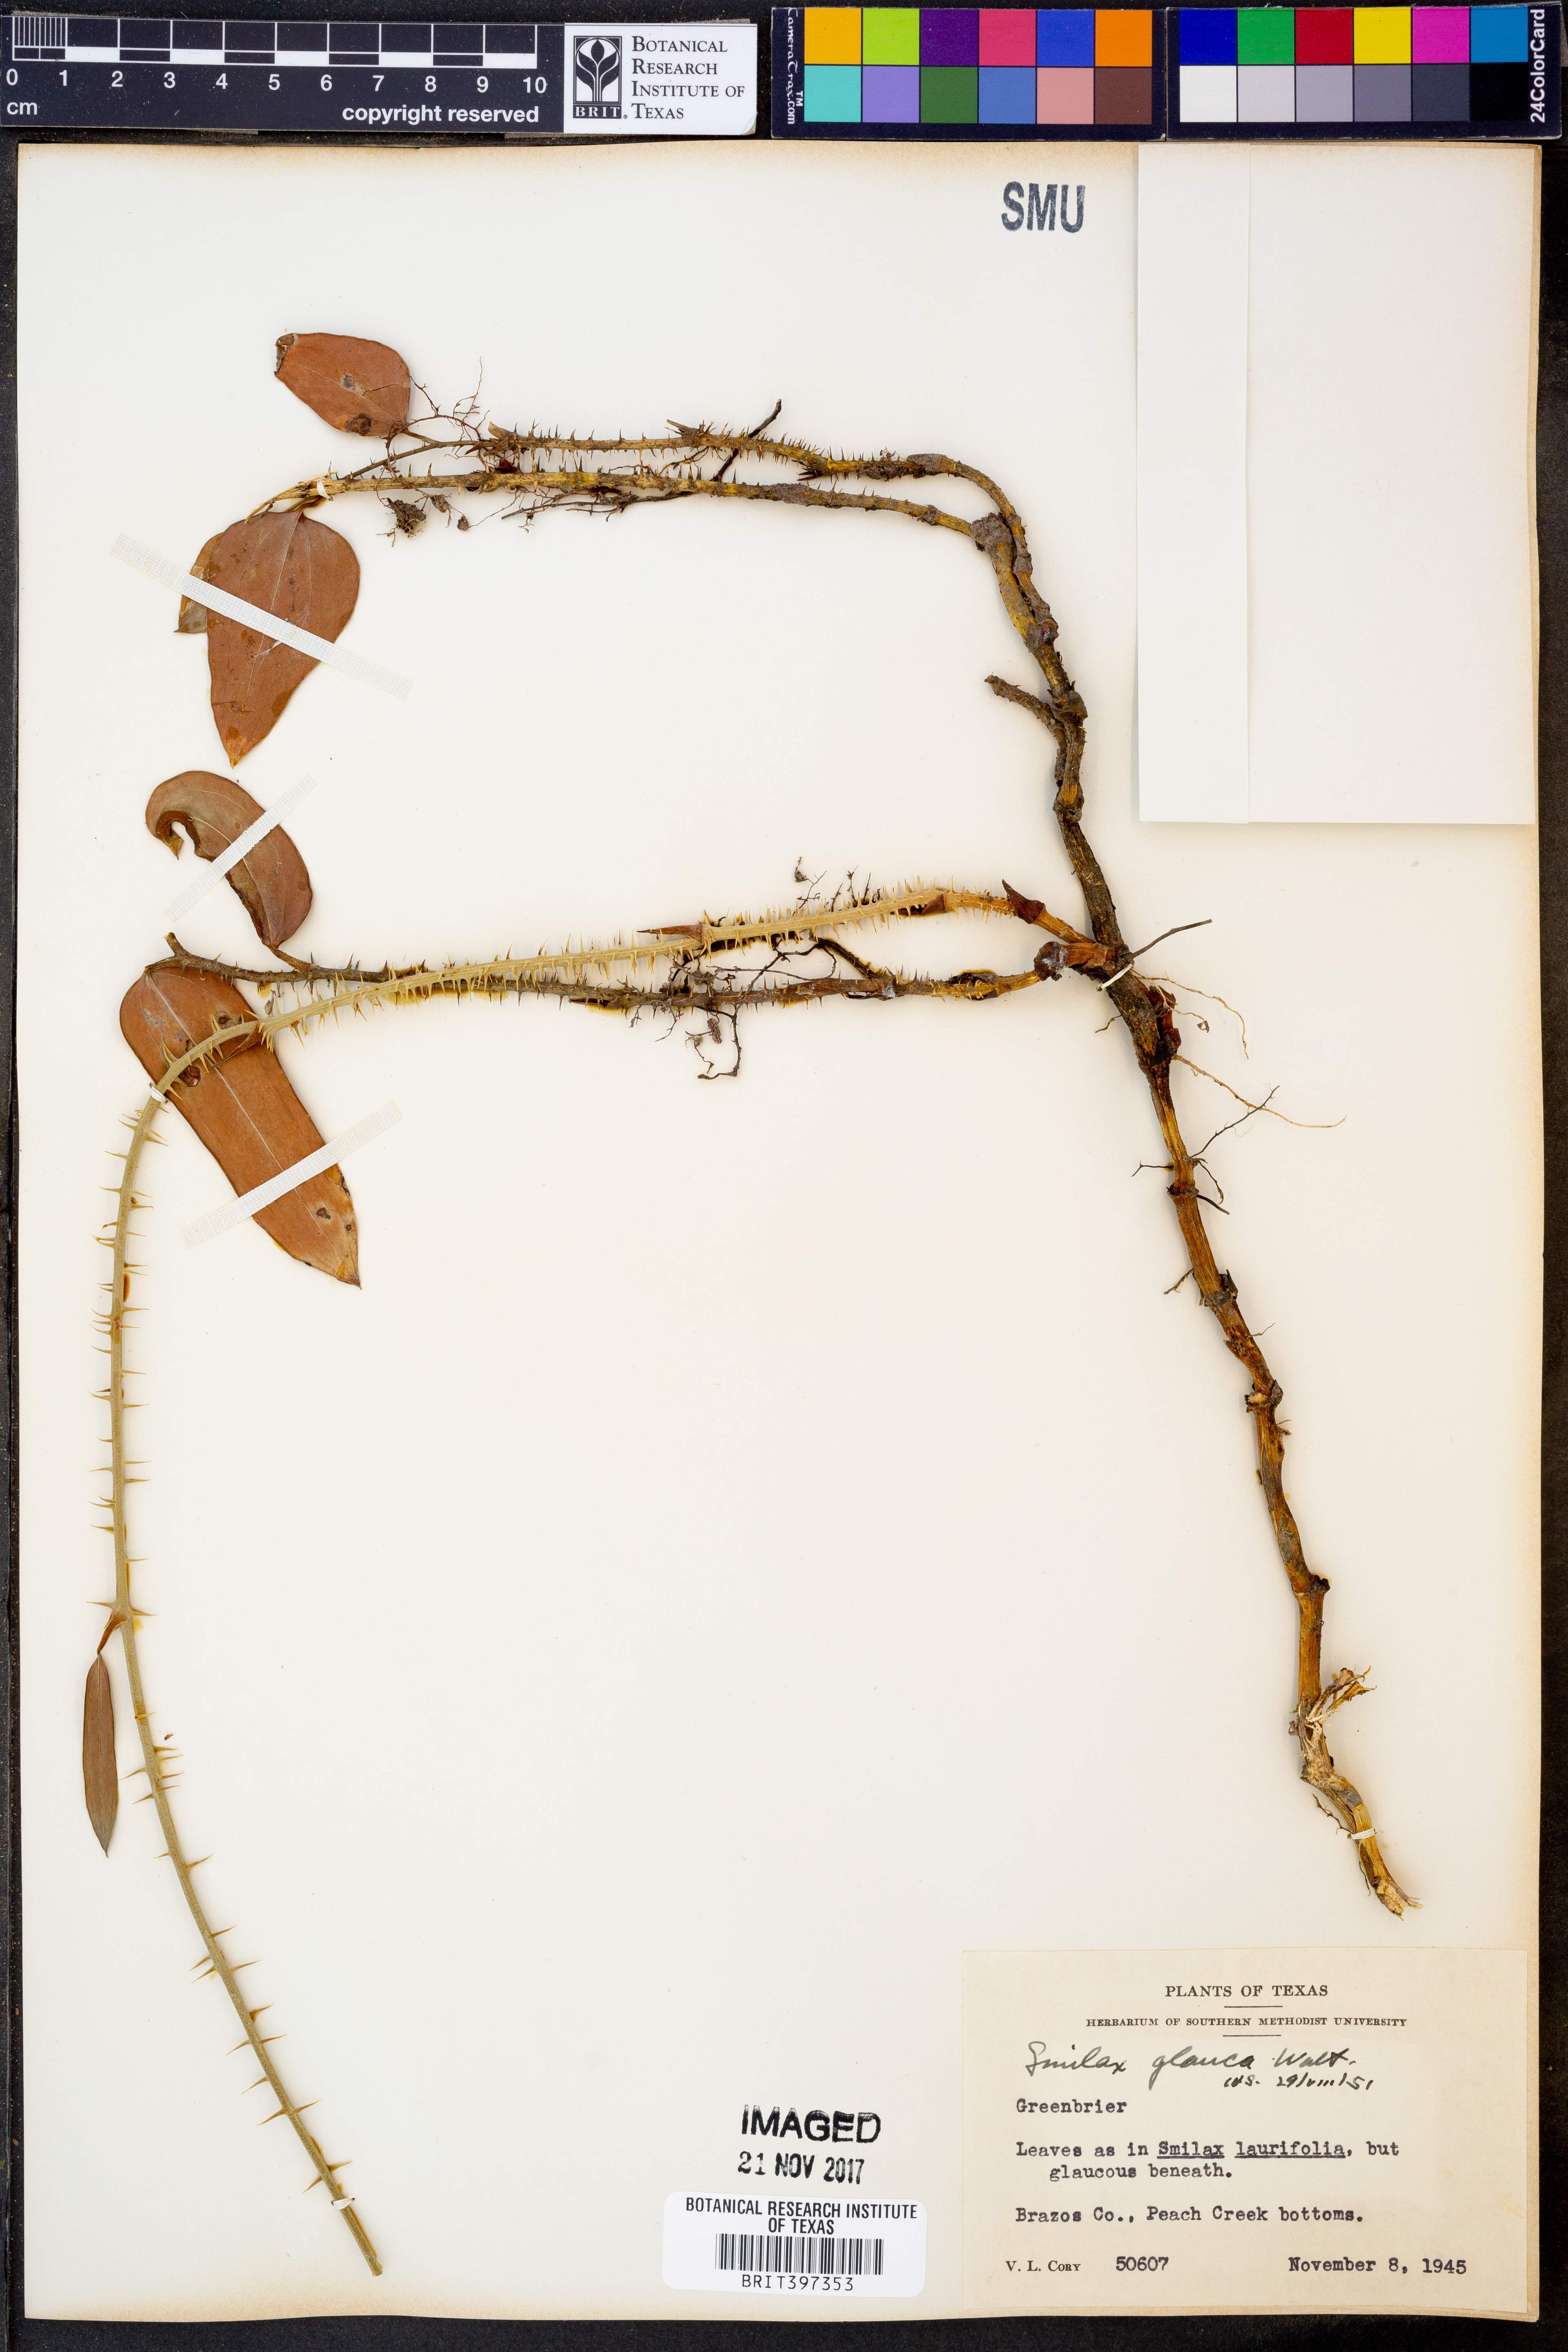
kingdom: Plantae
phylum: Tracheophyta
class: Liliopsida
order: Liliales
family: Smilacaceae
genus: Smilax
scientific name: Smilax glauca
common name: Cat greenbrier
